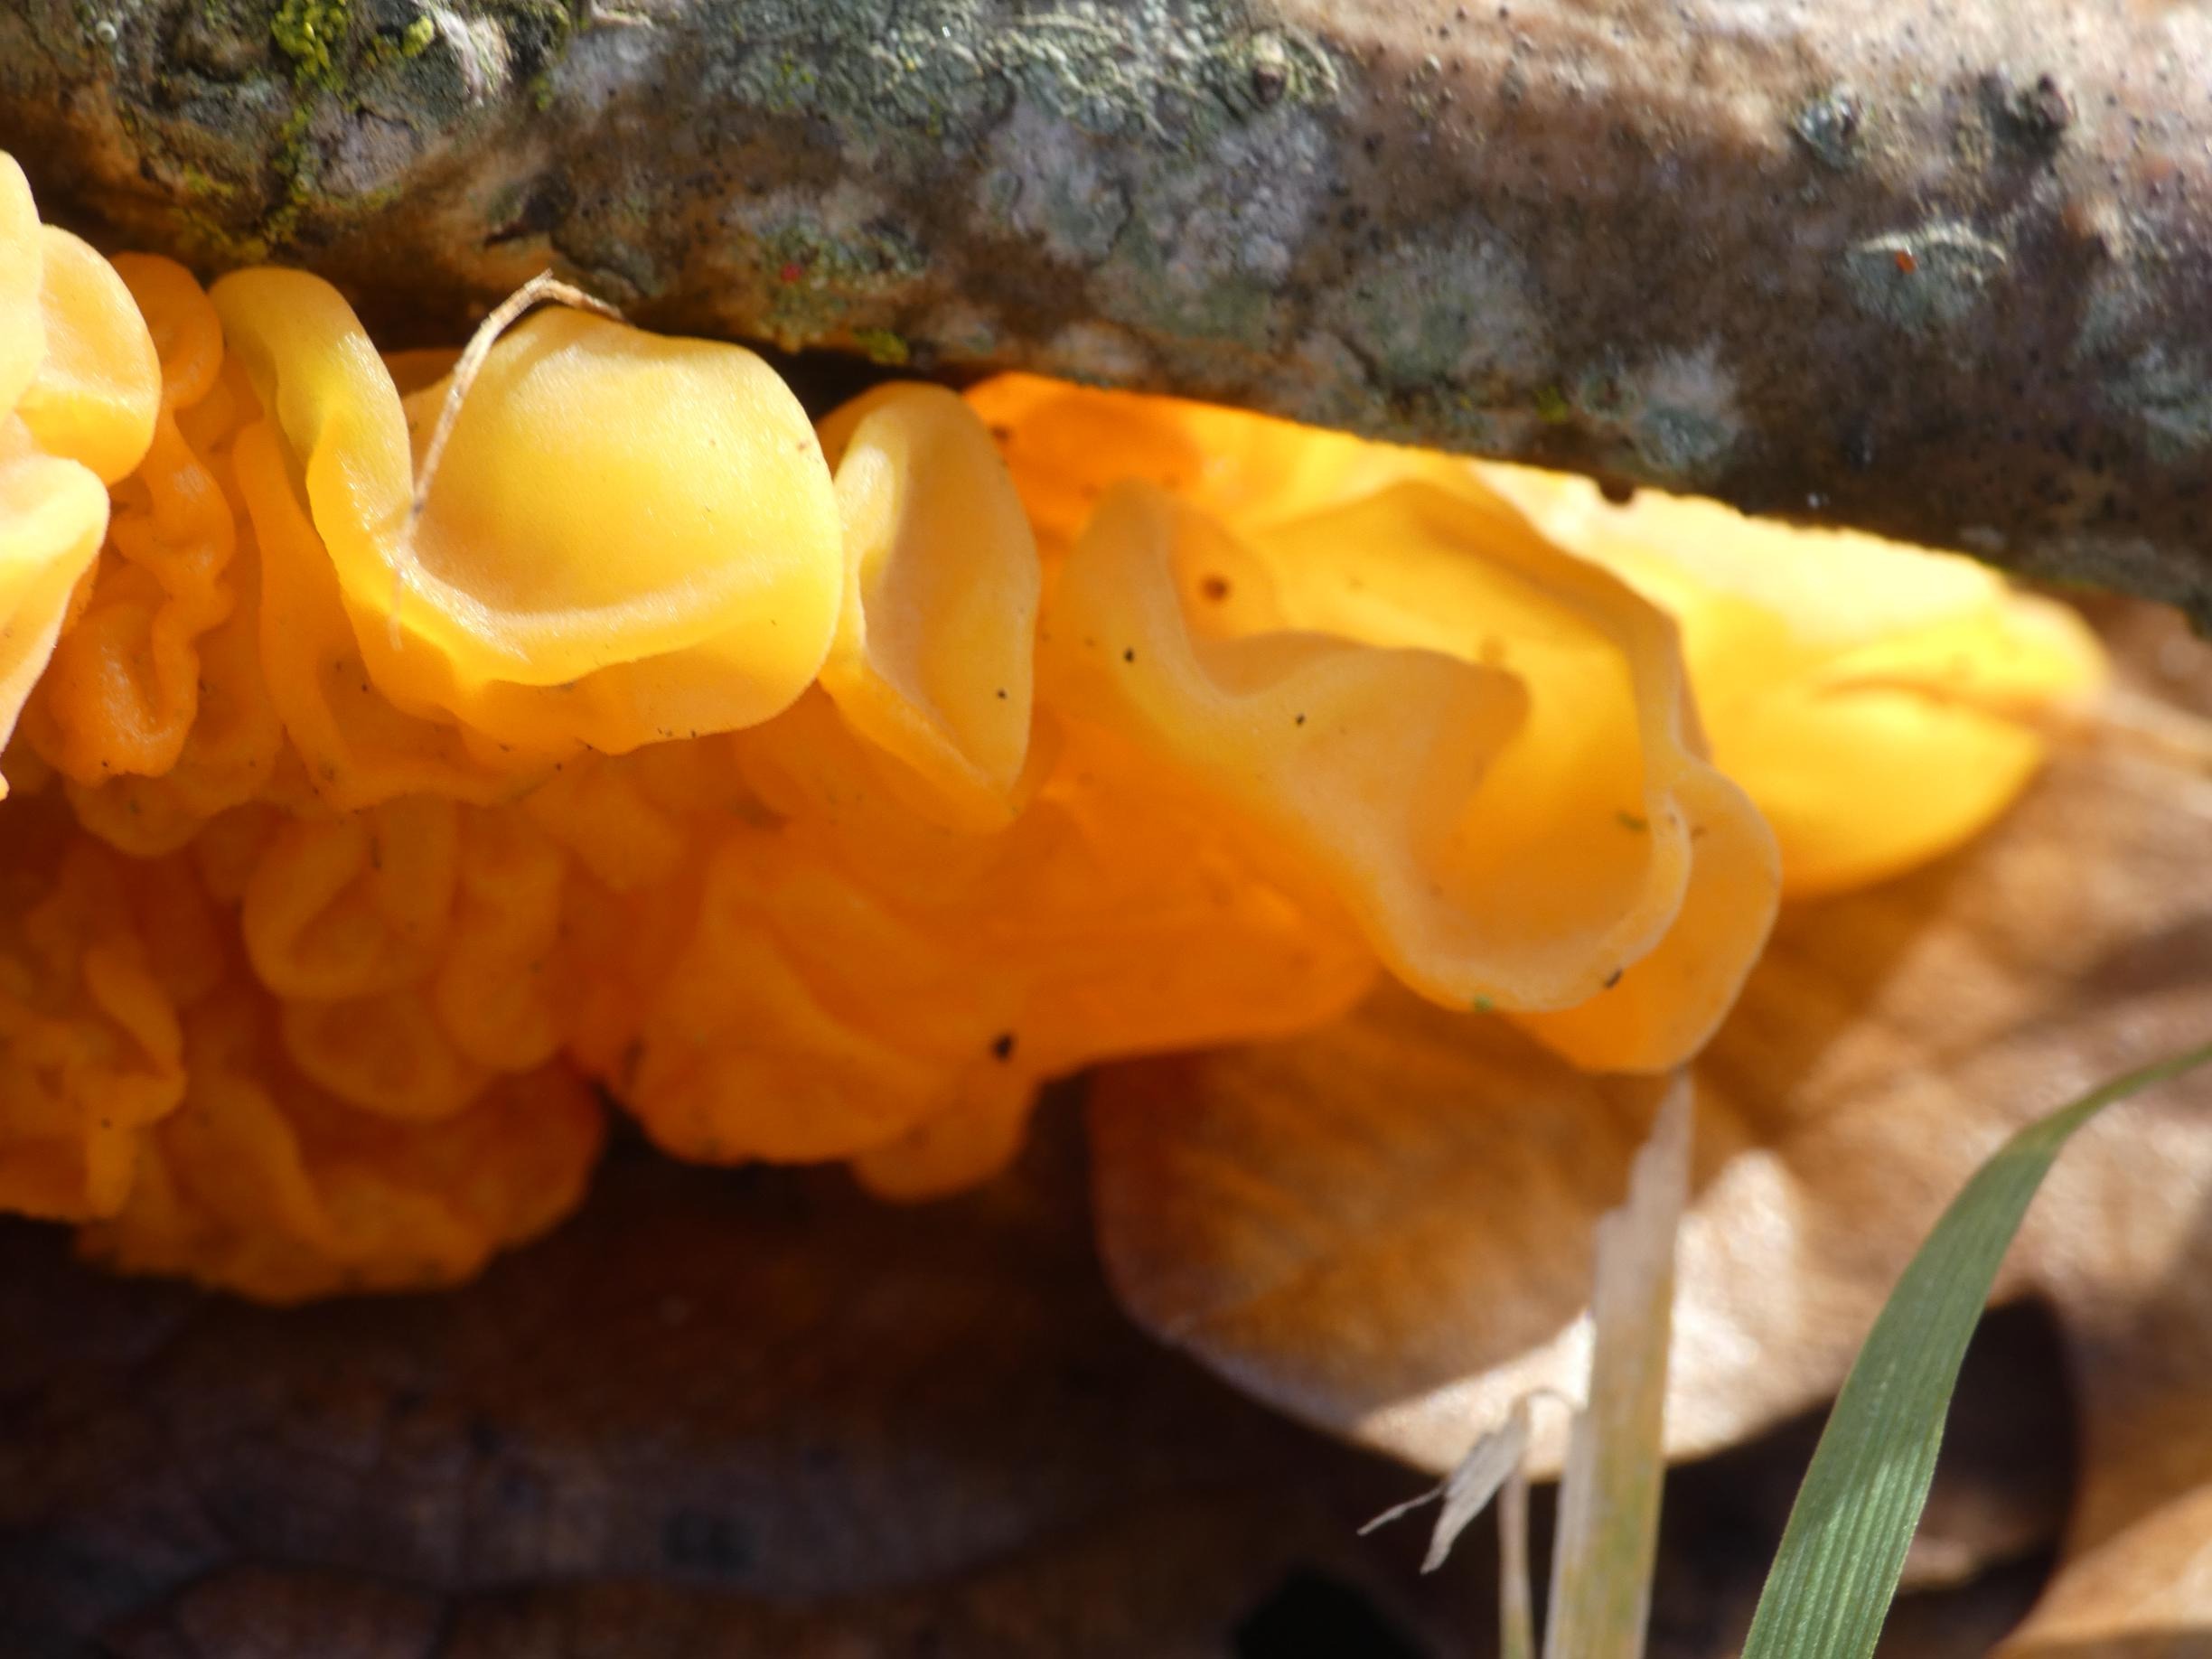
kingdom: Fungi
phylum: Basidiomycota
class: Tremellomycetes
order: Tremellales
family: Tremellaceae
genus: Tremella
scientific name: Tremella mesenterica
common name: Gul bævresvamp
